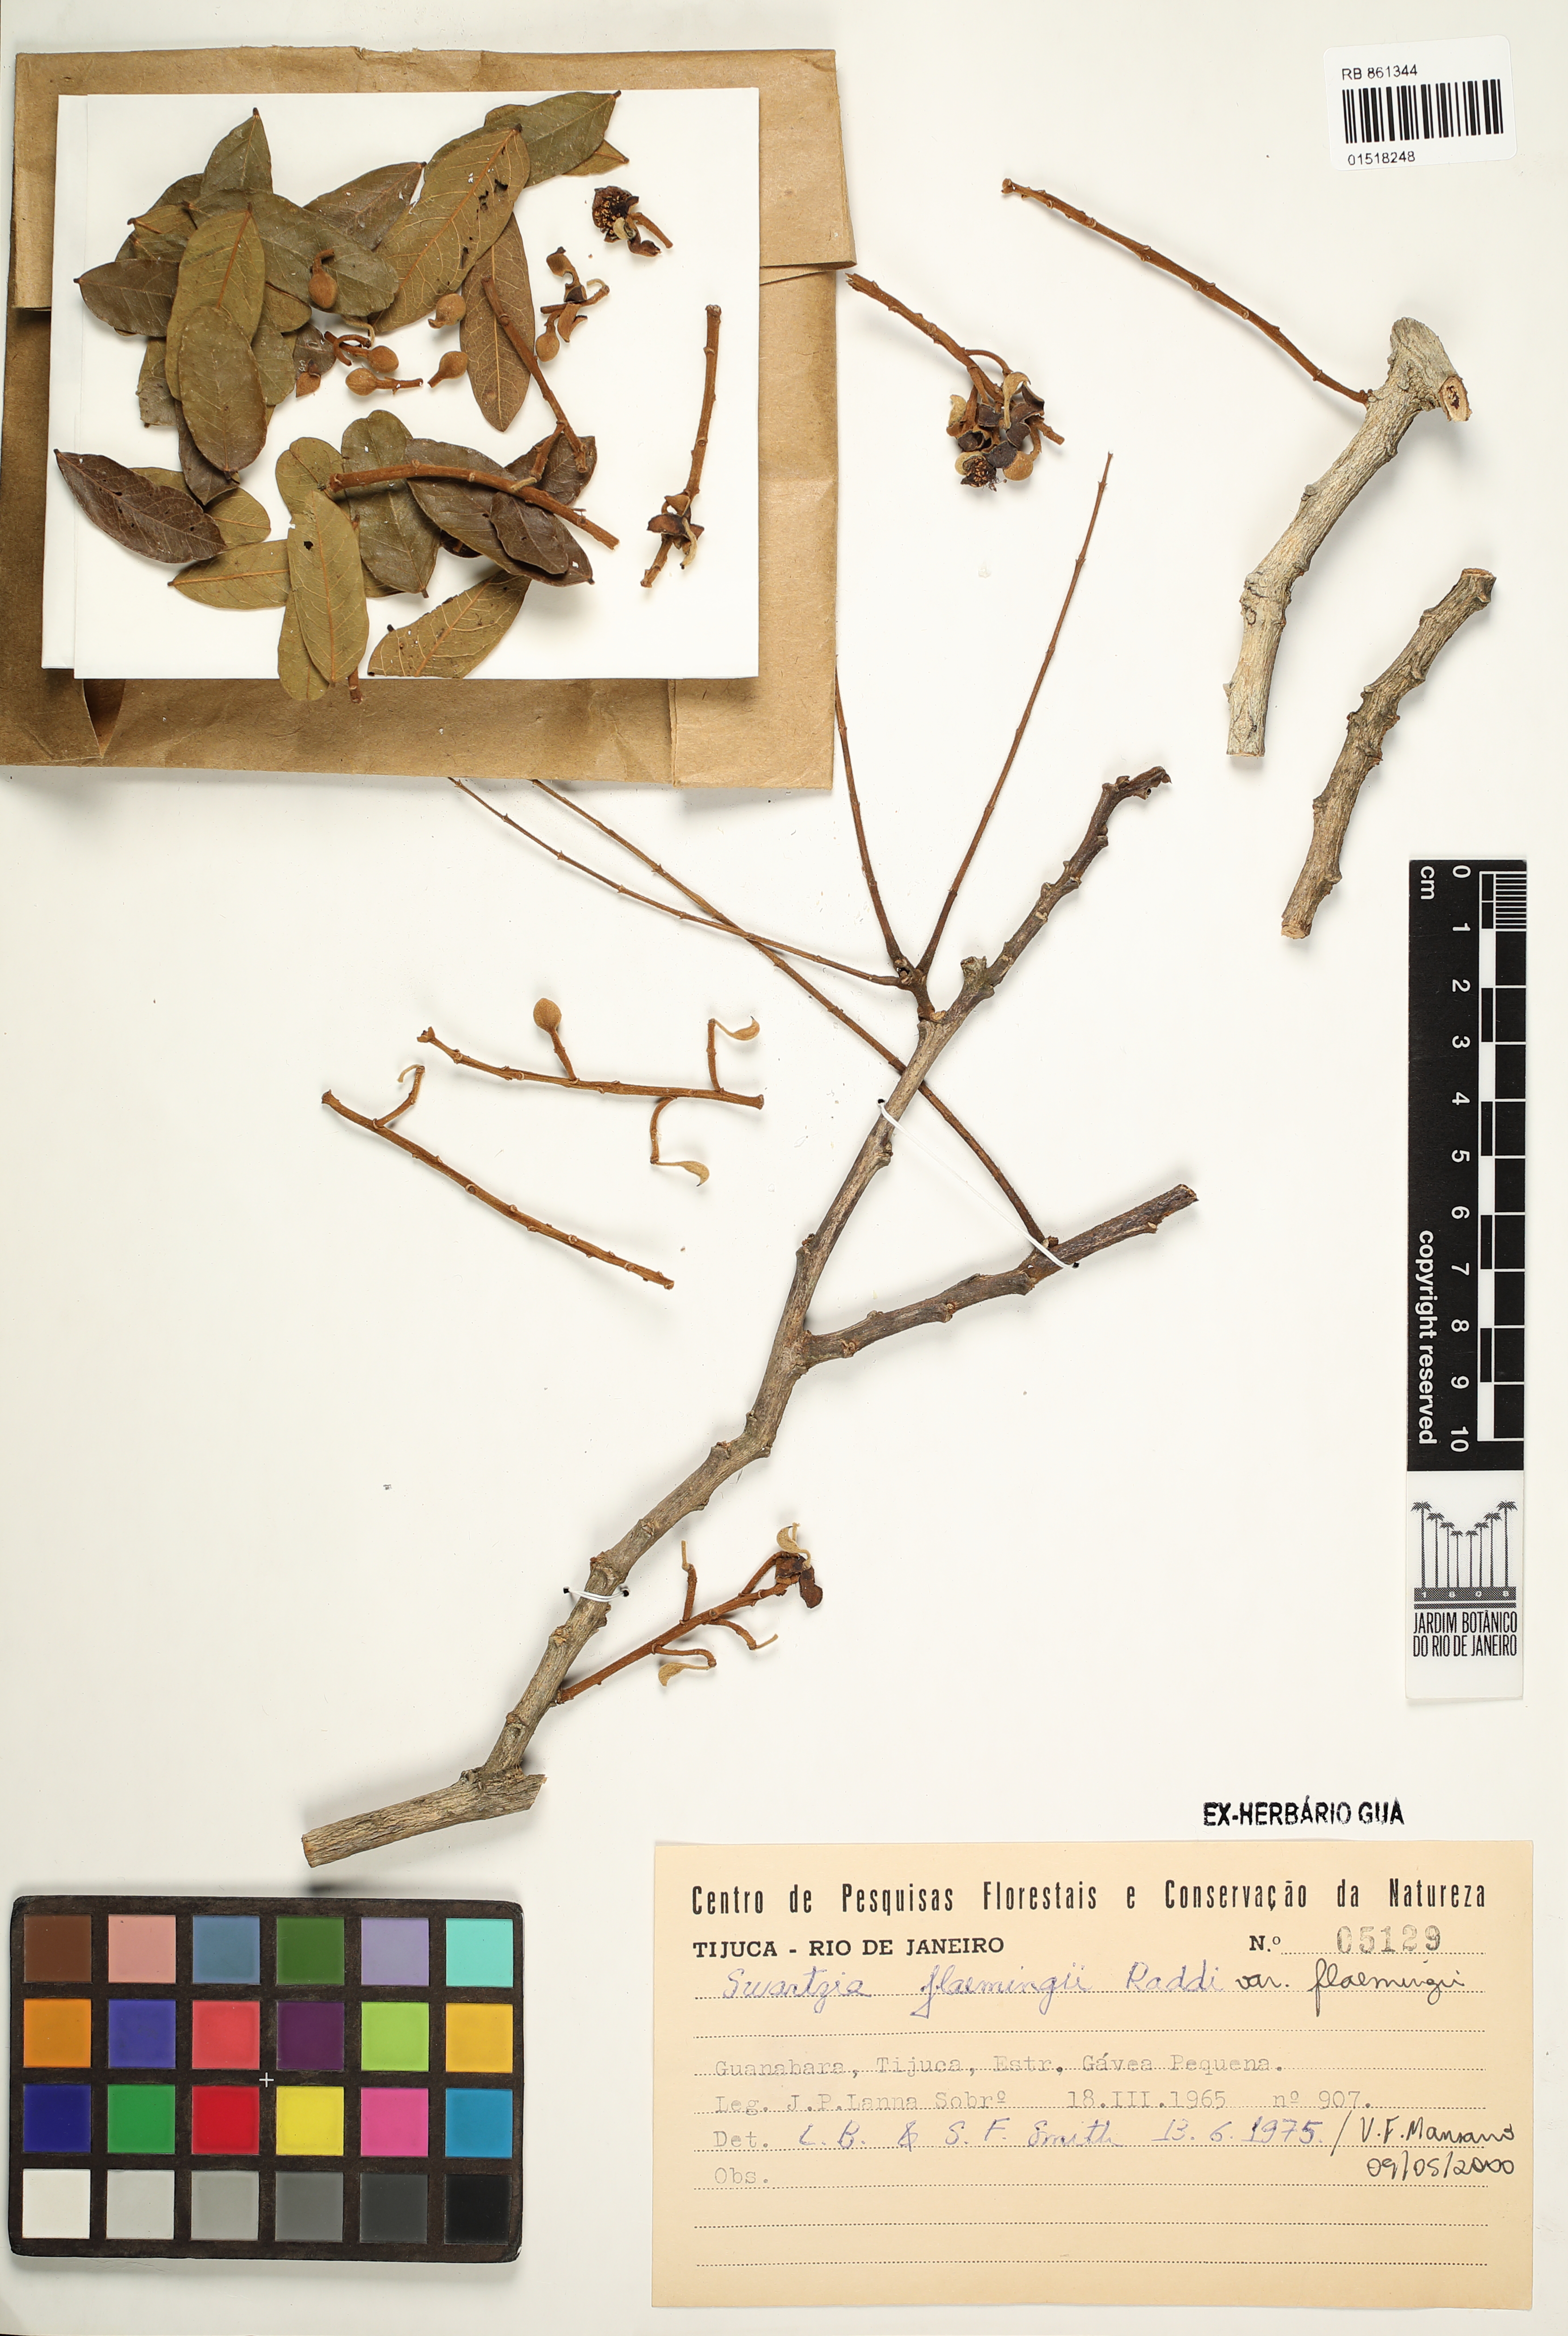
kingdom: Plantae
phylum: Tracheophyta
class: Magnoliopsida
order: Fabales
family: Fabaceae
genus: Swartzia
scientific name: Swartzia flaemingii
